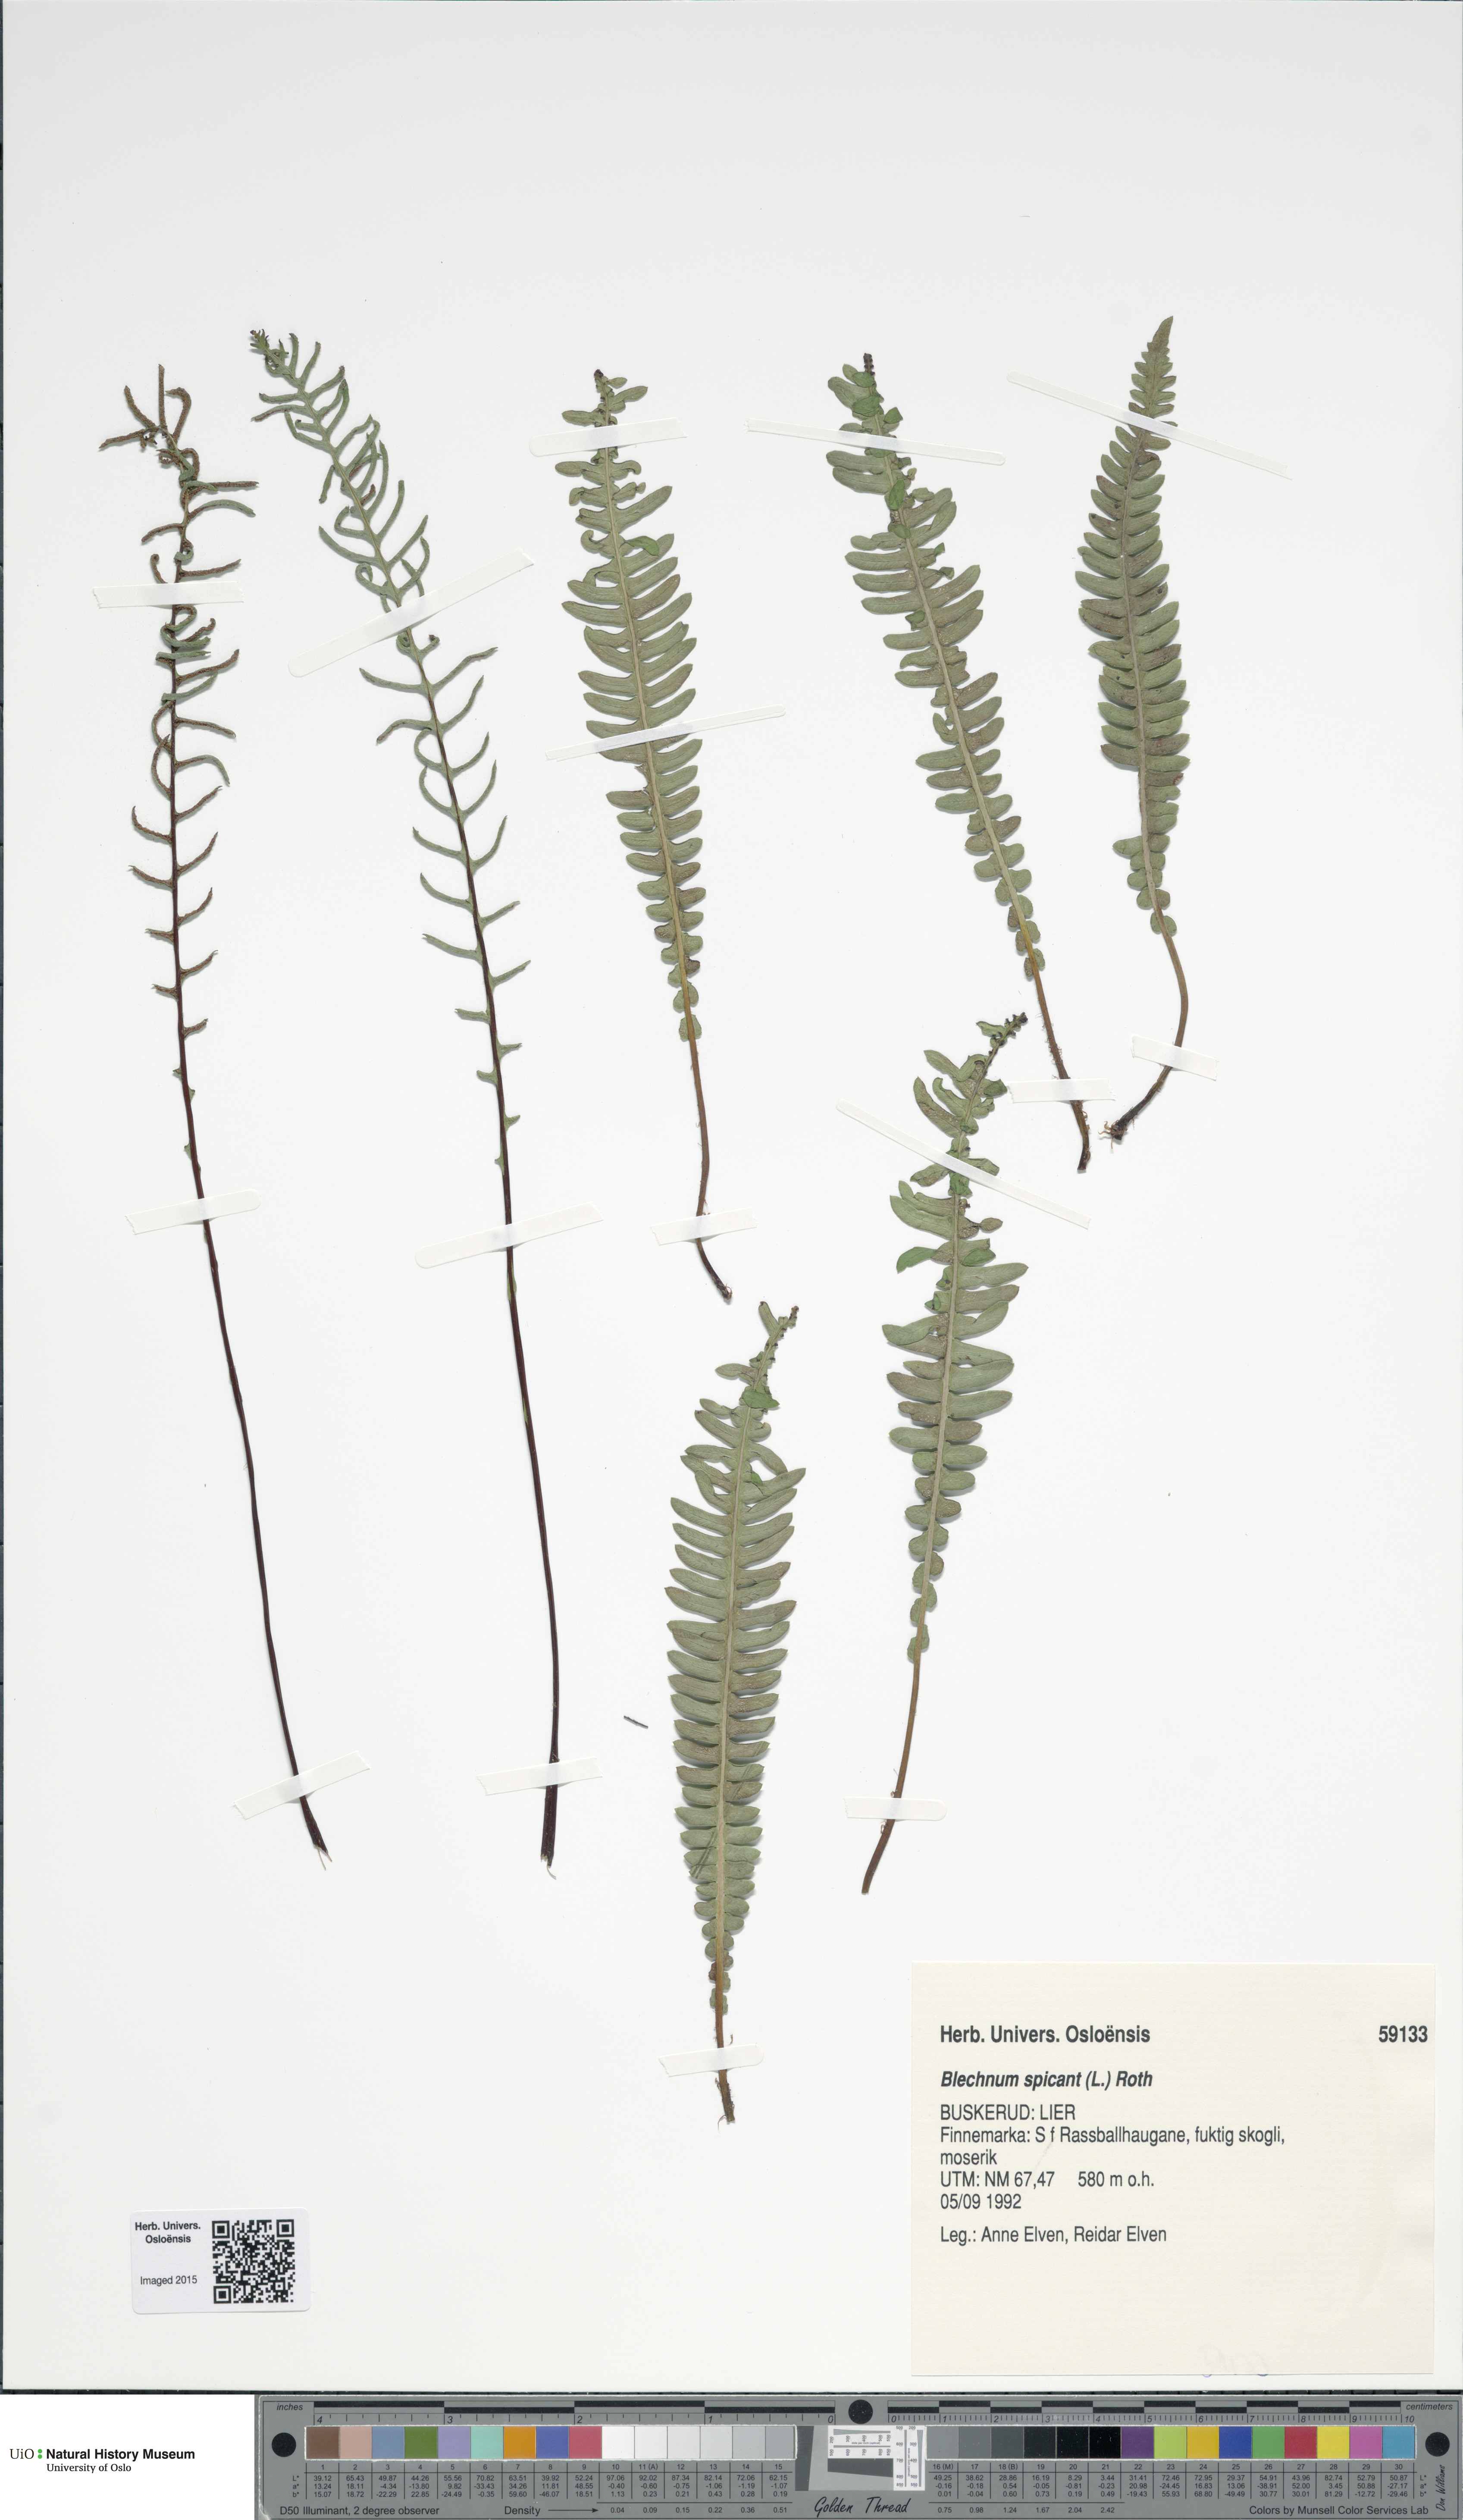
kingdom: Plantae
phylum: Tracheophyta
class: Polypodiopsida
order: Polypodiales
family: Blechnaceae
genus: Struthiopteris
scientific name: Struthiopteris spicant
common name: Deer fern
